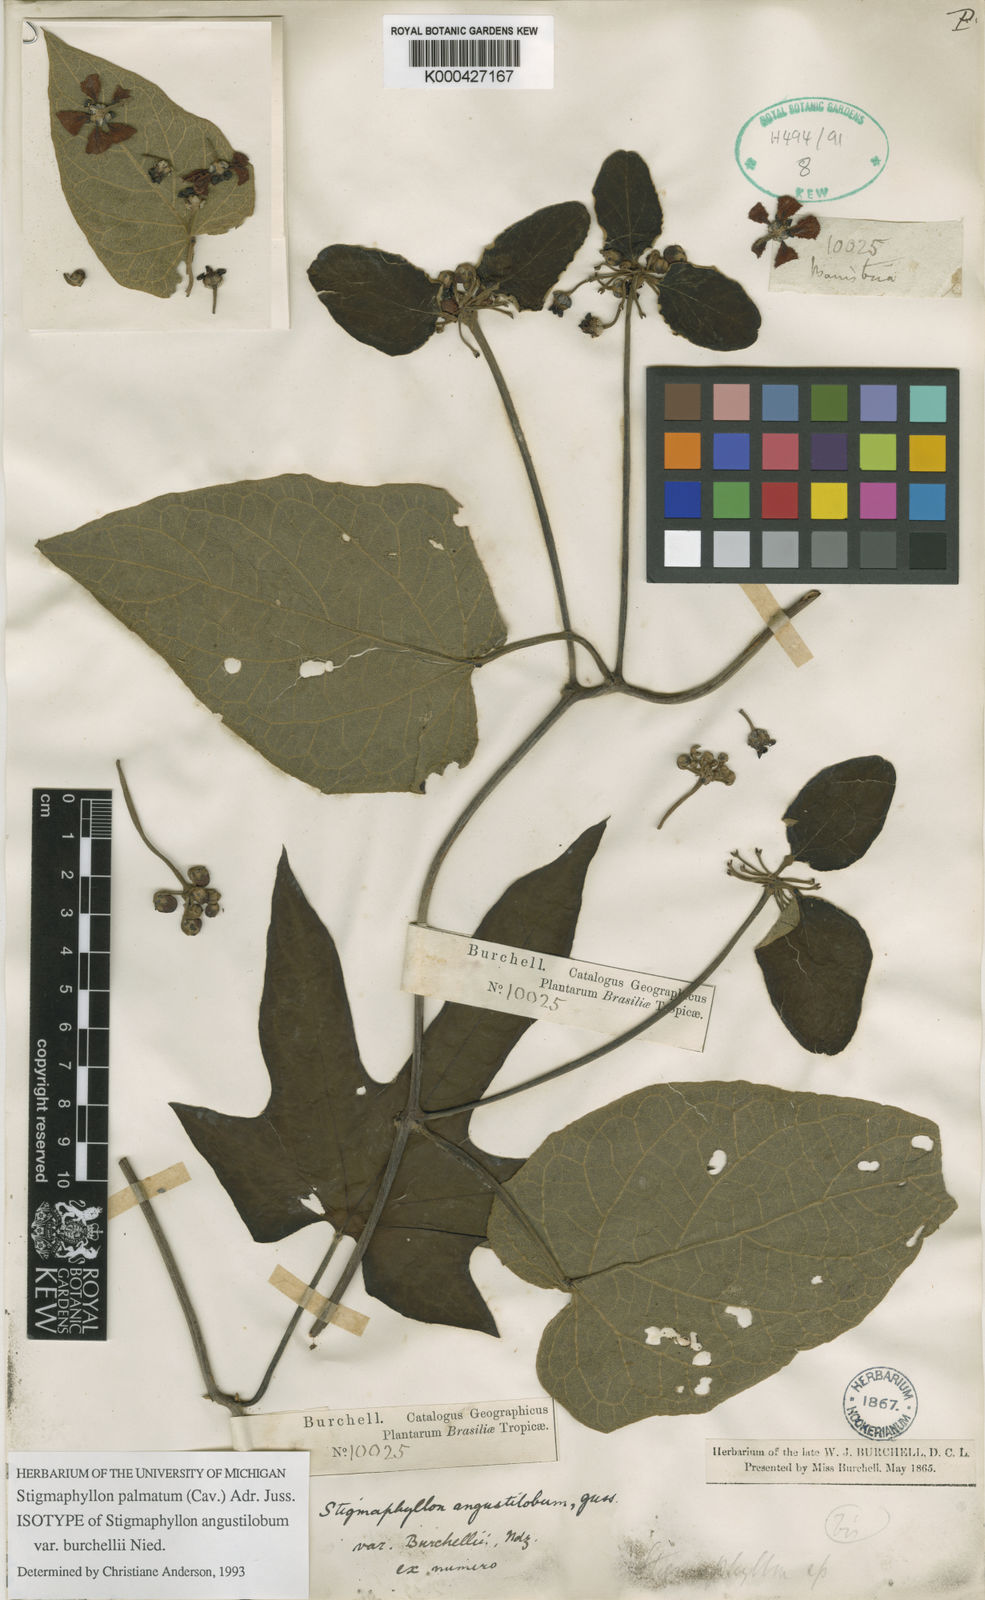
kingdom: Plantae
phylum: Tracheophyta
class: Magnoliopsida
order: Malpighiales
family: Malpighiaceae
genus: Stigmaphyllon
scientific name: Stigmaphyllon palmatum
